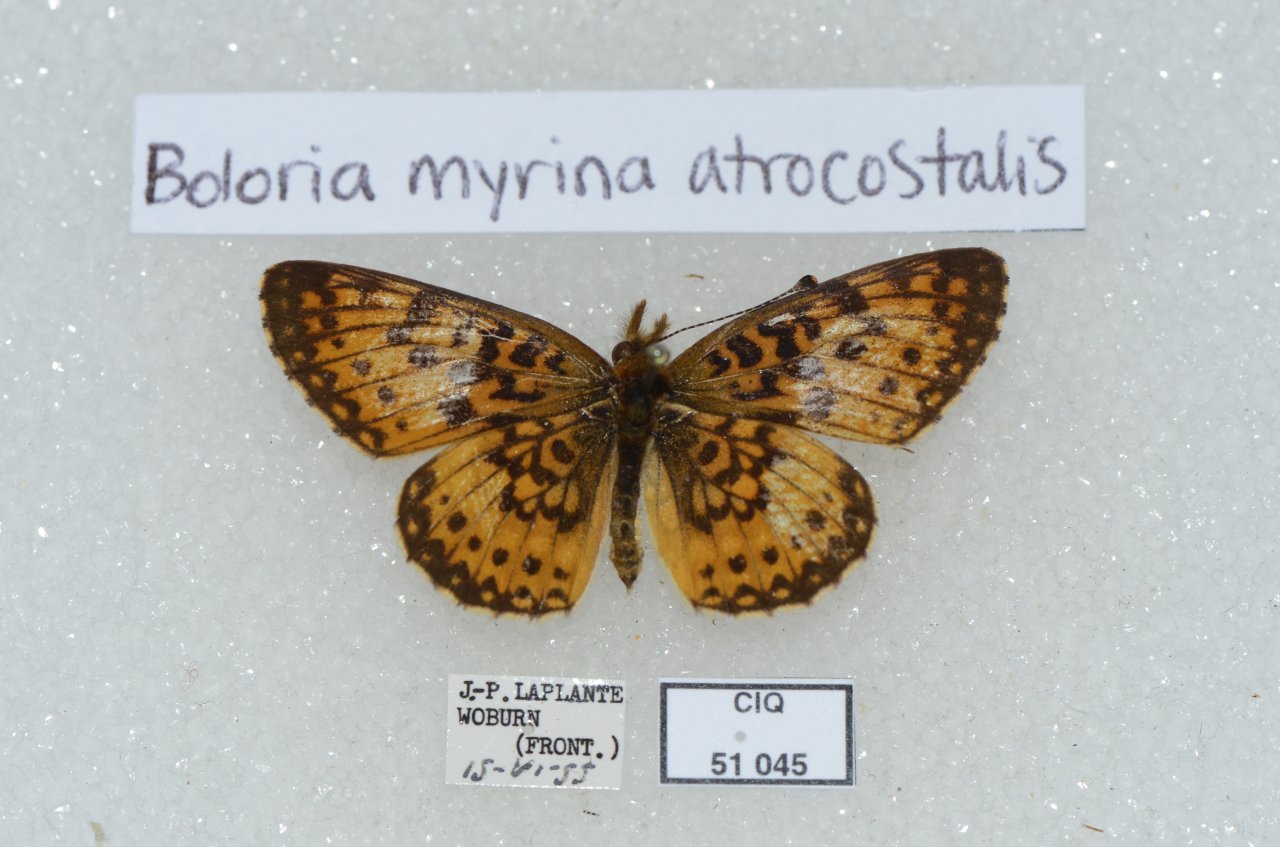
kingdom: Animalia
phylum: Arthropoda
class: Insecta
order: Lepidoptera
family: Nymphalidae
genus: Boloria
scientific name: Boloria selene
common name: Silver-bordered Fritillary
